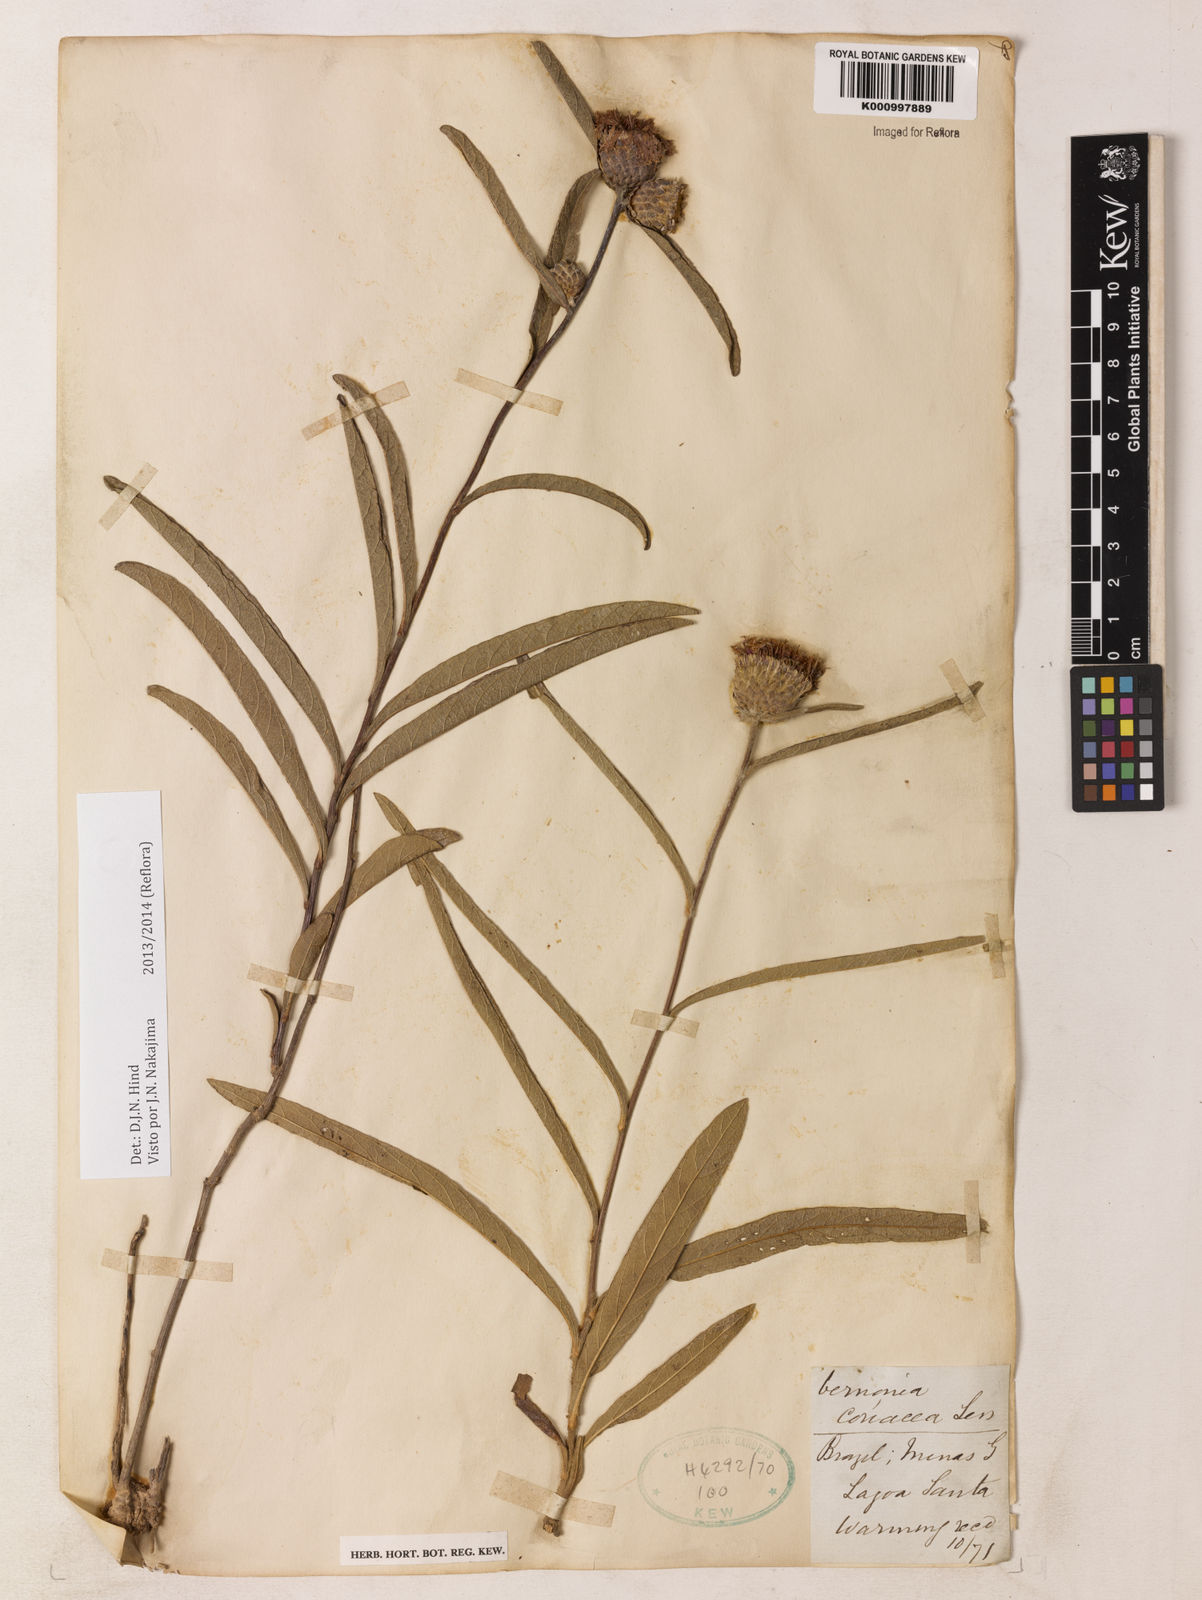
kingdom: Plantae
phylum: Tracheophyta
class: Magnoliopsida
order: Asterales
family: Asteraceae
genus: Lessingianthus
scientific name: Lessingianthus coriaceus
